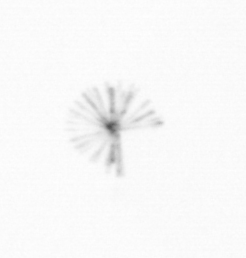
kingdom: Chromista
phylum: Ochrophyta
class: Bacillariophyceae
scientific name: Bacillariophyceae
